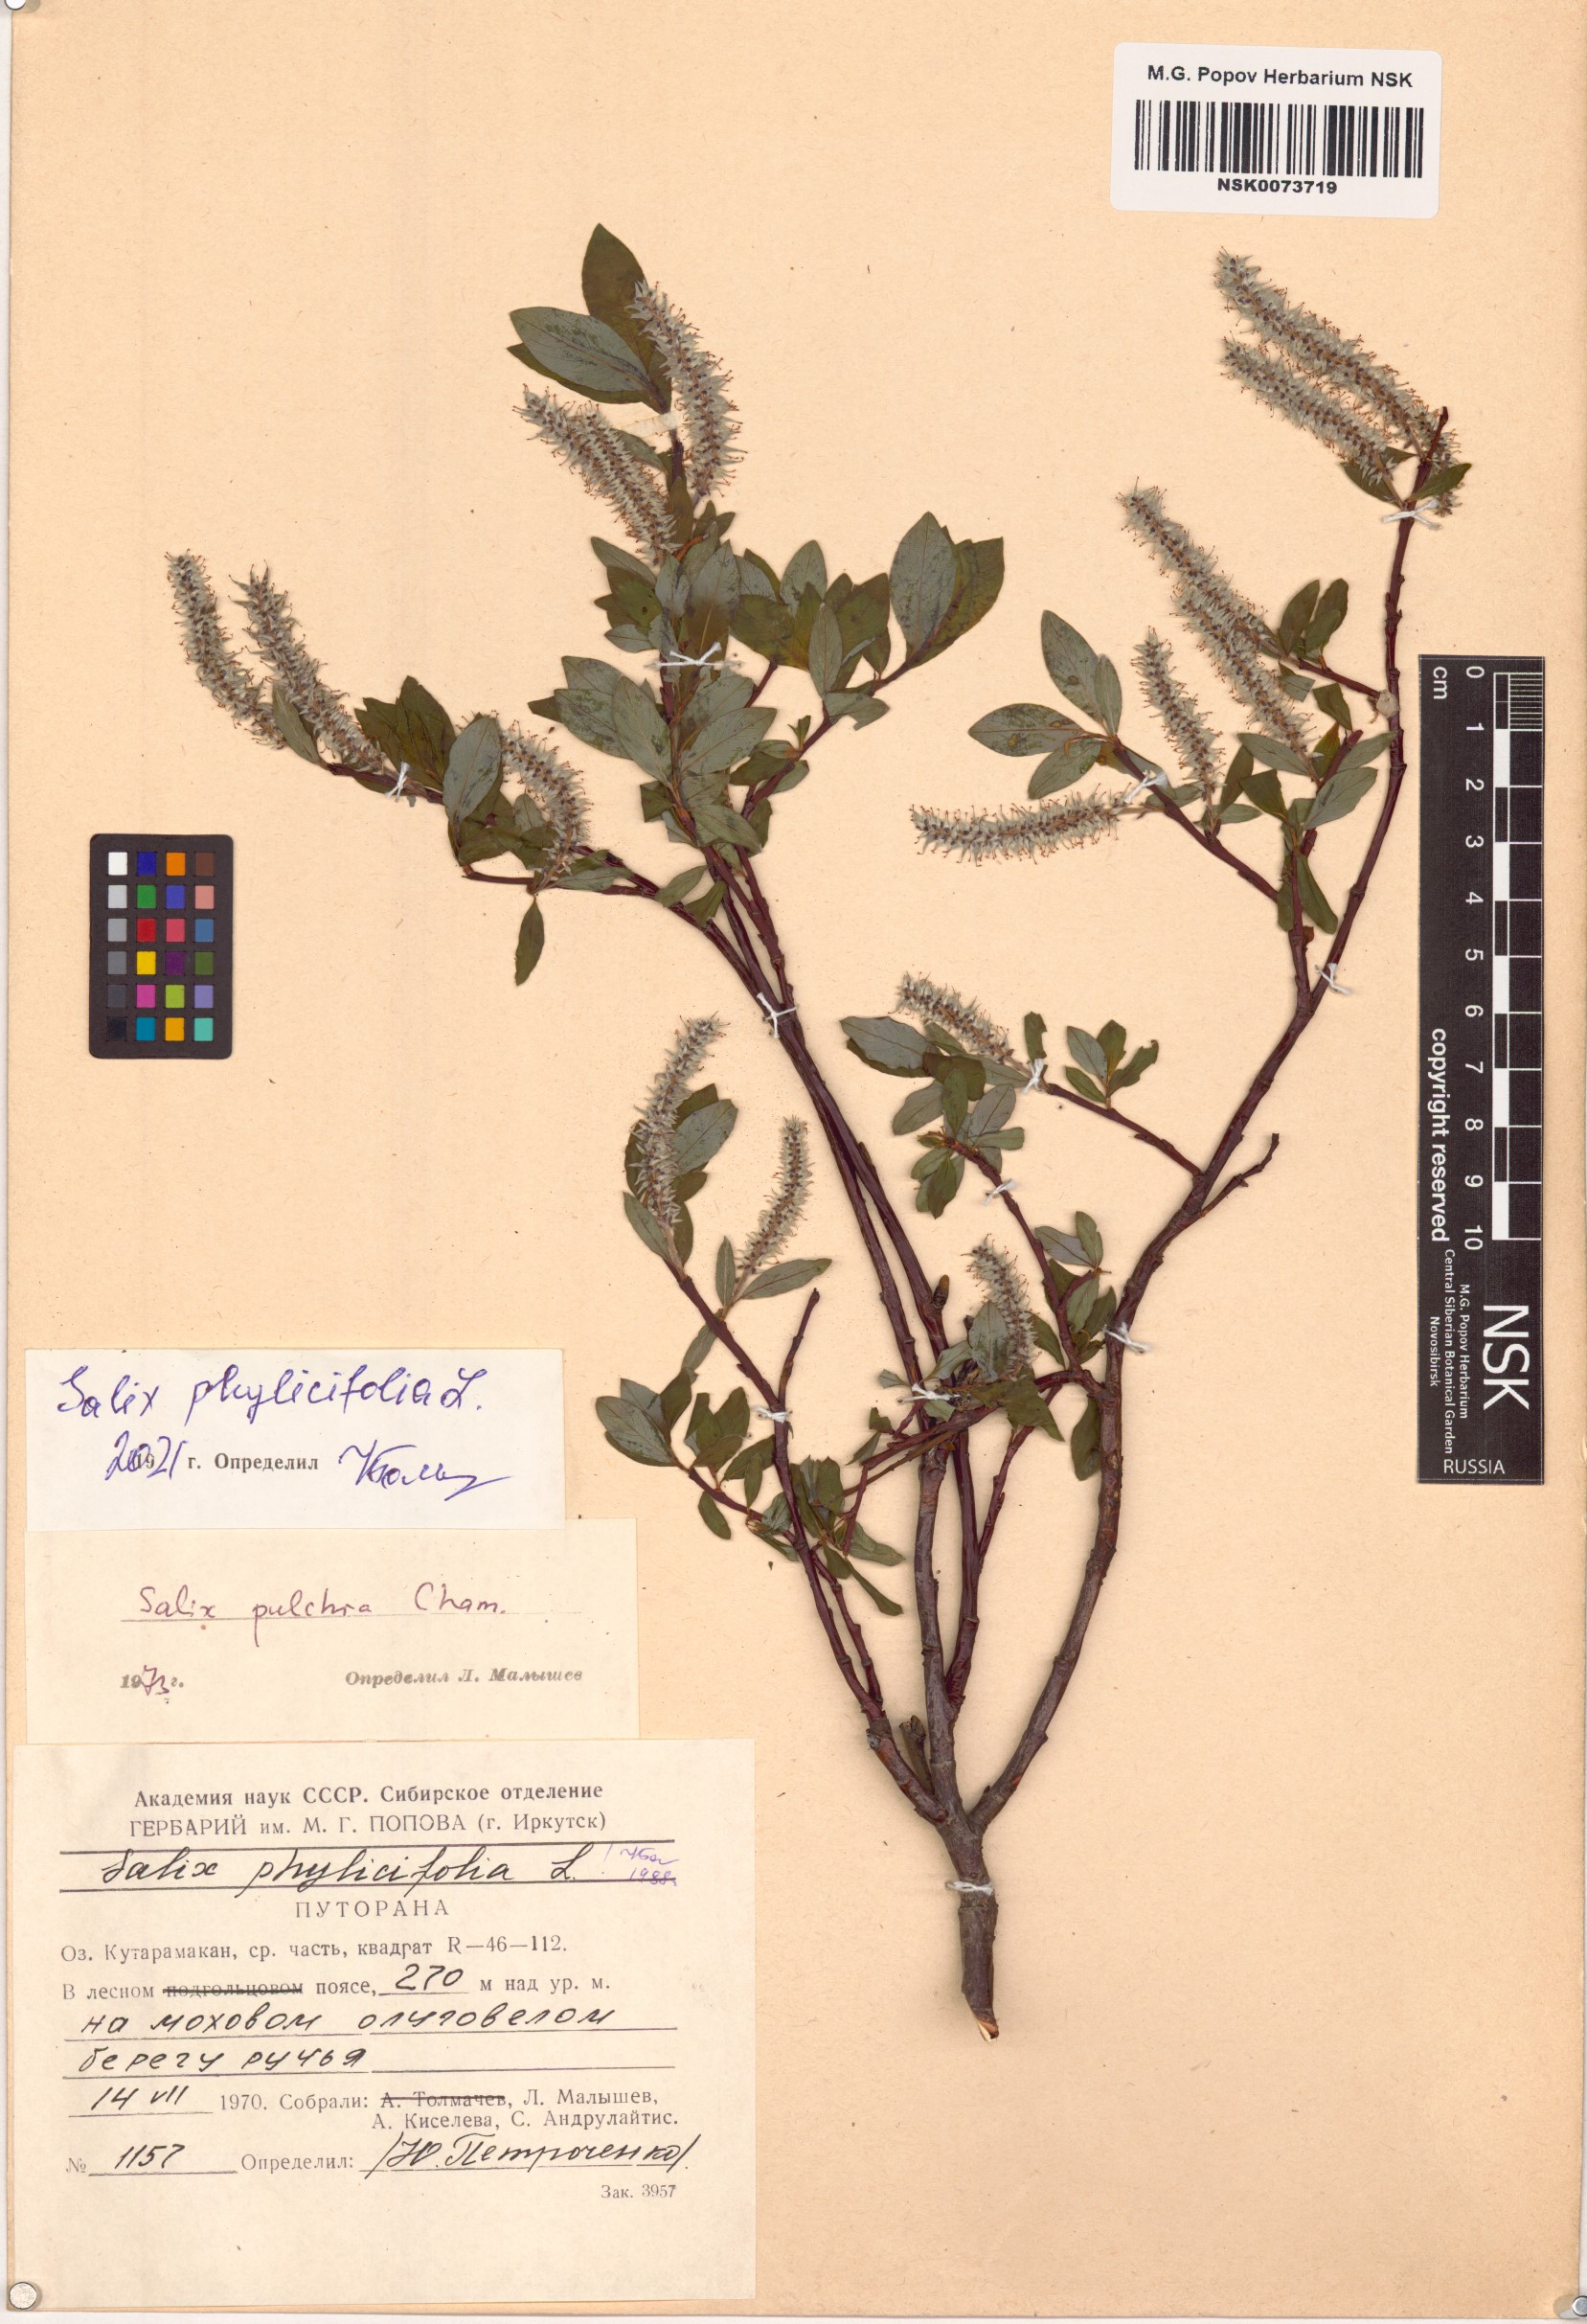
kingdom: Plantae
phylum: Tracheophyta
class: Magnoliopsida
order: Malpighiales
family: Salicaceae
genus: Salix
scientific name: Salix phylicifolia
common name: Tea-leaved willow
